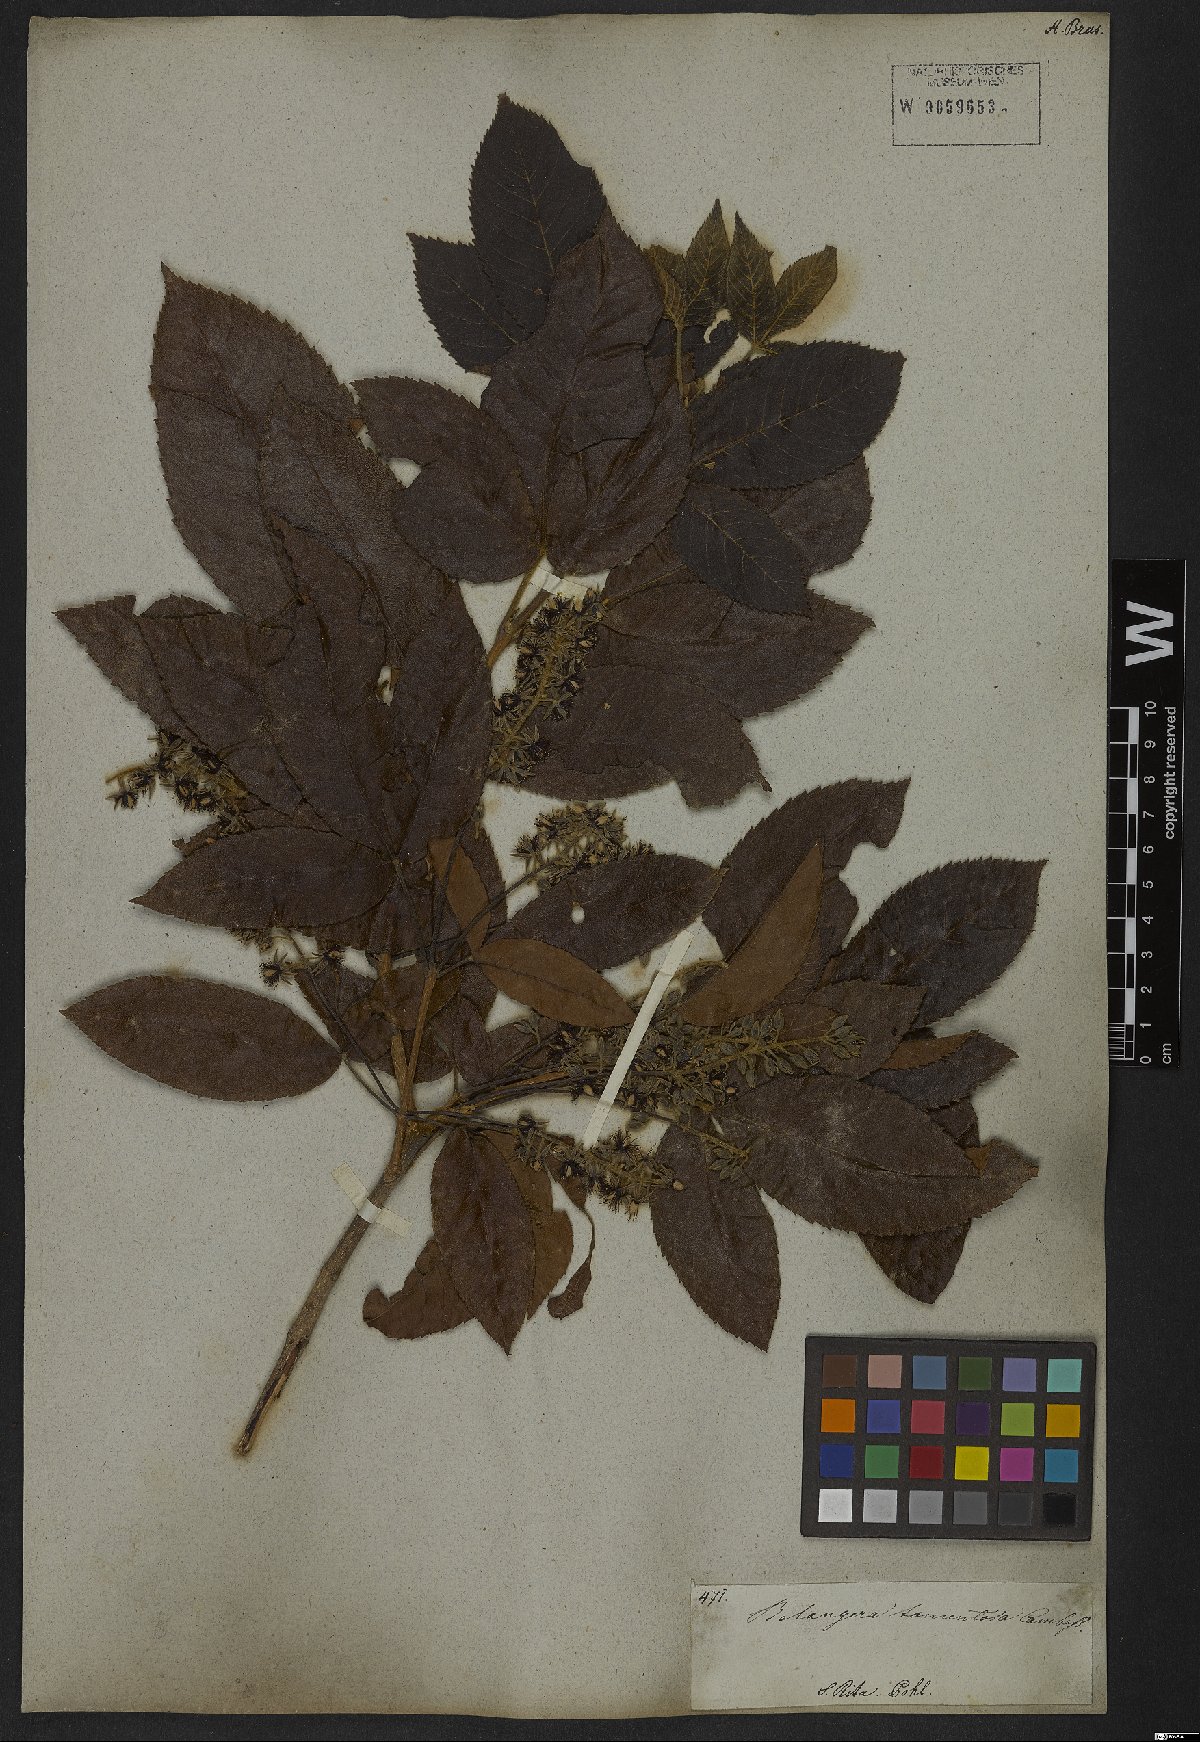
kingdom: Plantae
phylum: Tracheophyta
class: Magnoliopsida
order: Oxalidales
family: Cunoniaceae
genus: Lamanonia
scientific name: Lamanonia ternata
